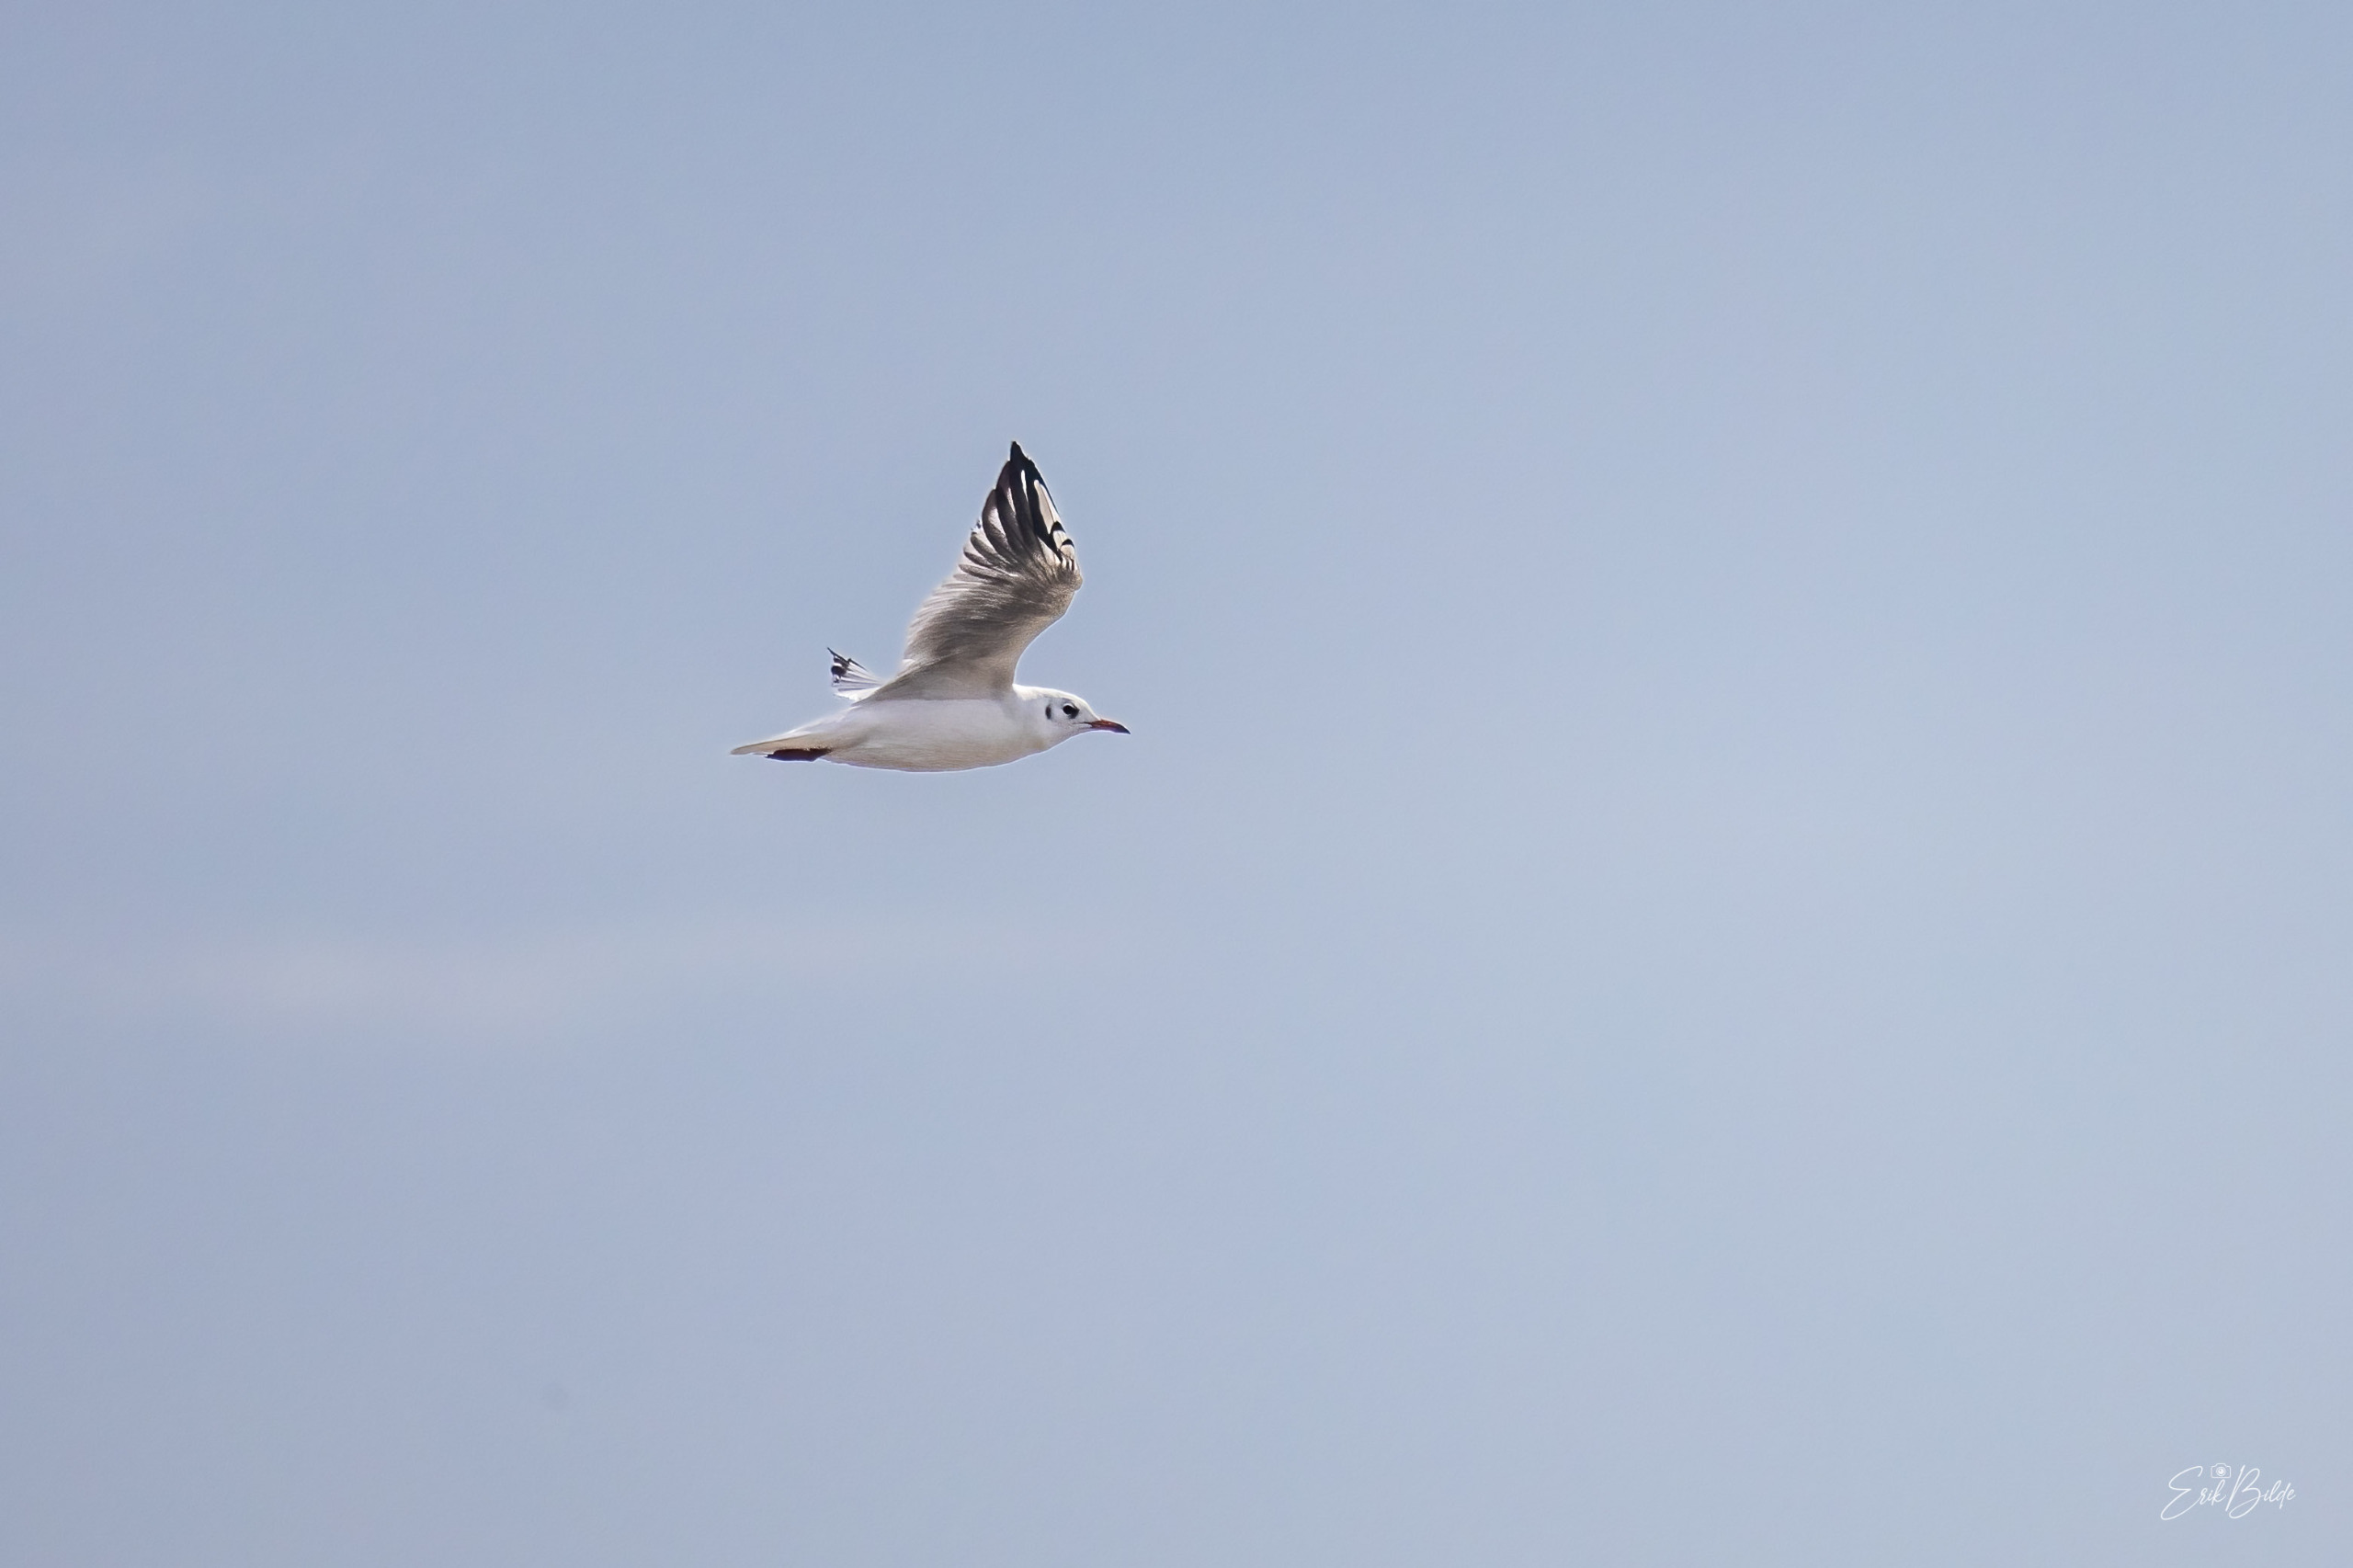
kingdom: Animalia
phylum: Chordata
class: Aves
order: Charadriiformes
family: Laridae
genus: Chroicocephalus
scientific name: Chroicocephalus ridibundus
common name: Hættemåge
